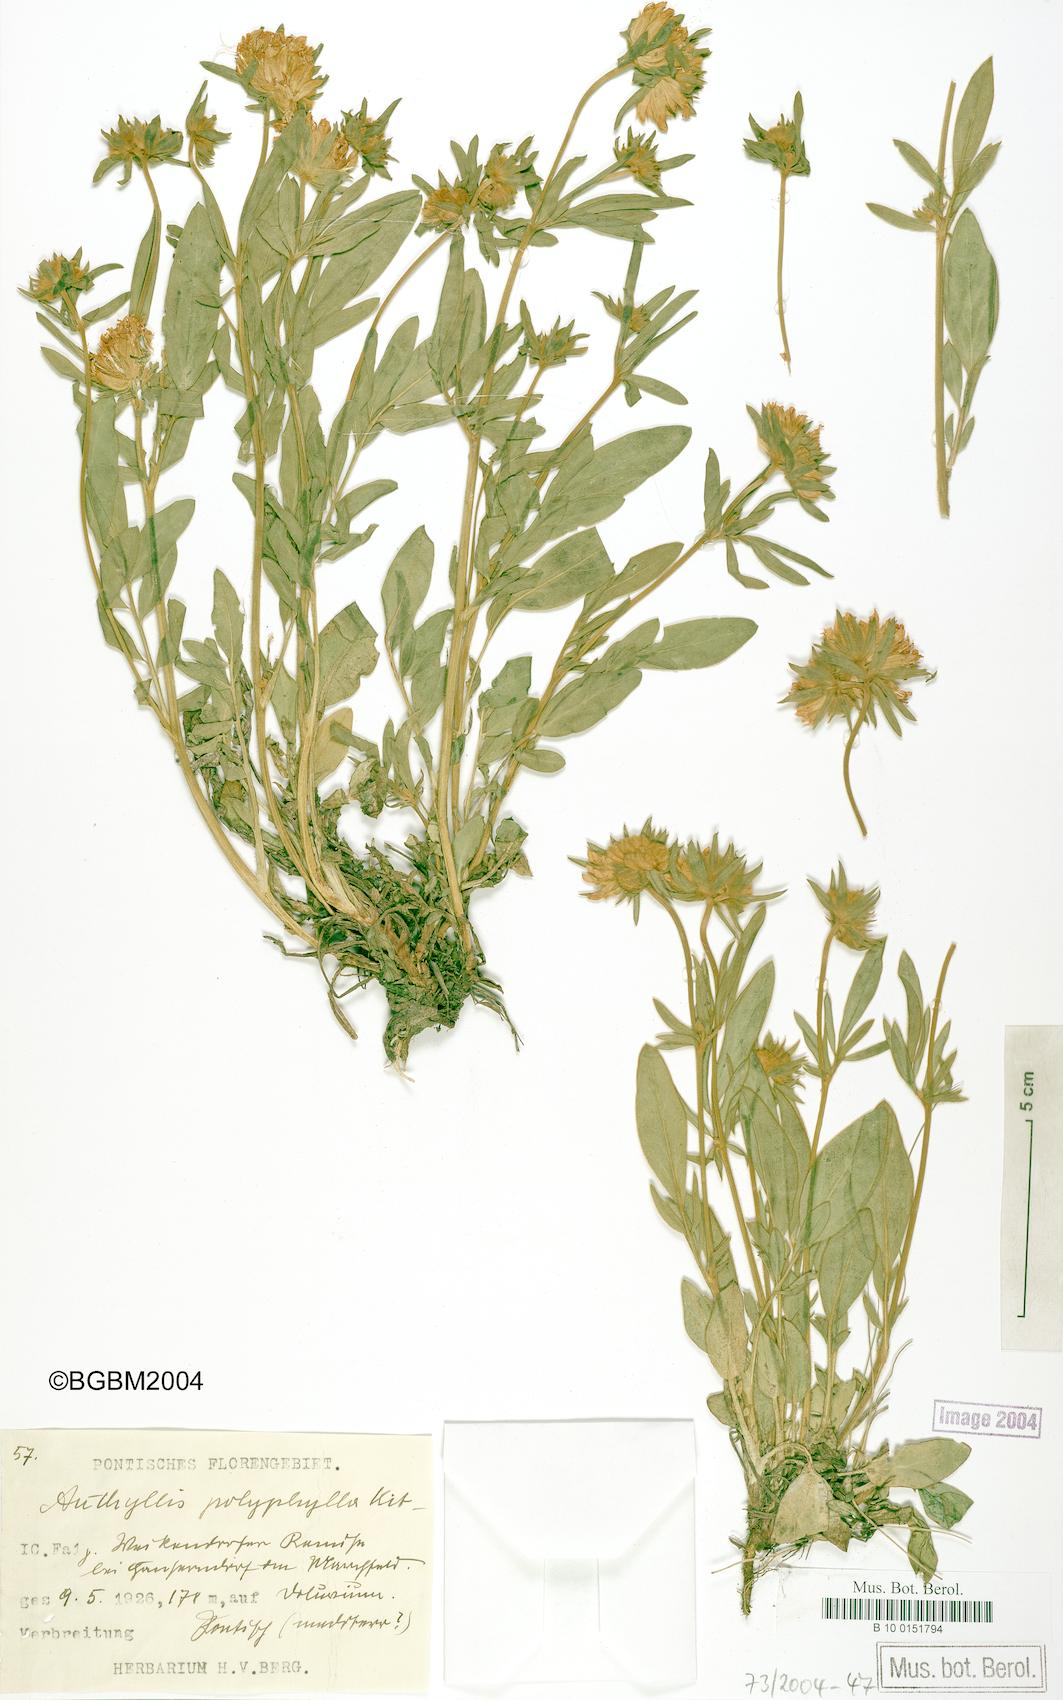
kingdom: Plantae
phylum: Tracheophyta
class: Magnoliopsida
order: Fabales
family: Fabaceae
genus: Anthyllis
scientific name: Anthyllis vulneraria
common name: Kidney vetch
